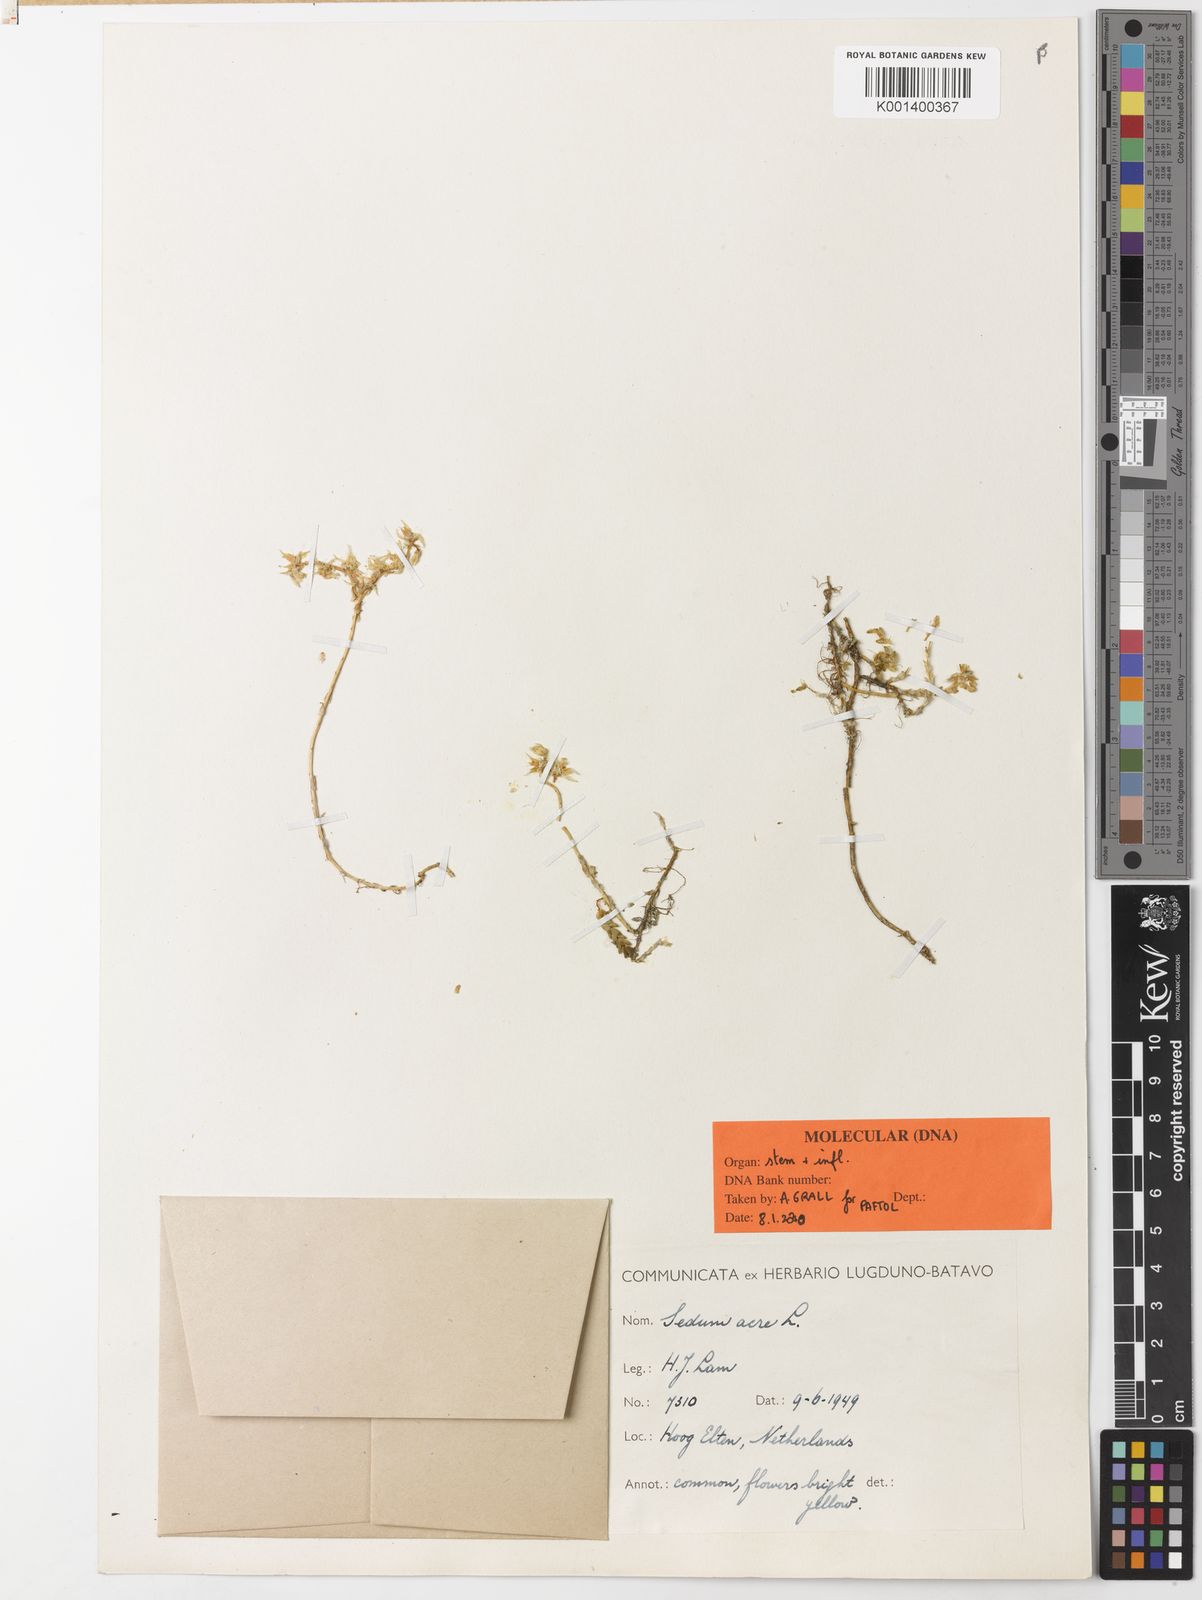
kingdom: Plantae
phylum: Tracheophyta
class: Magnoliopsida
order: Saxifragales
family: Crassulaceae
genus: Sedum
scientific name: Sedum acre
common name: Biting stonecrop
